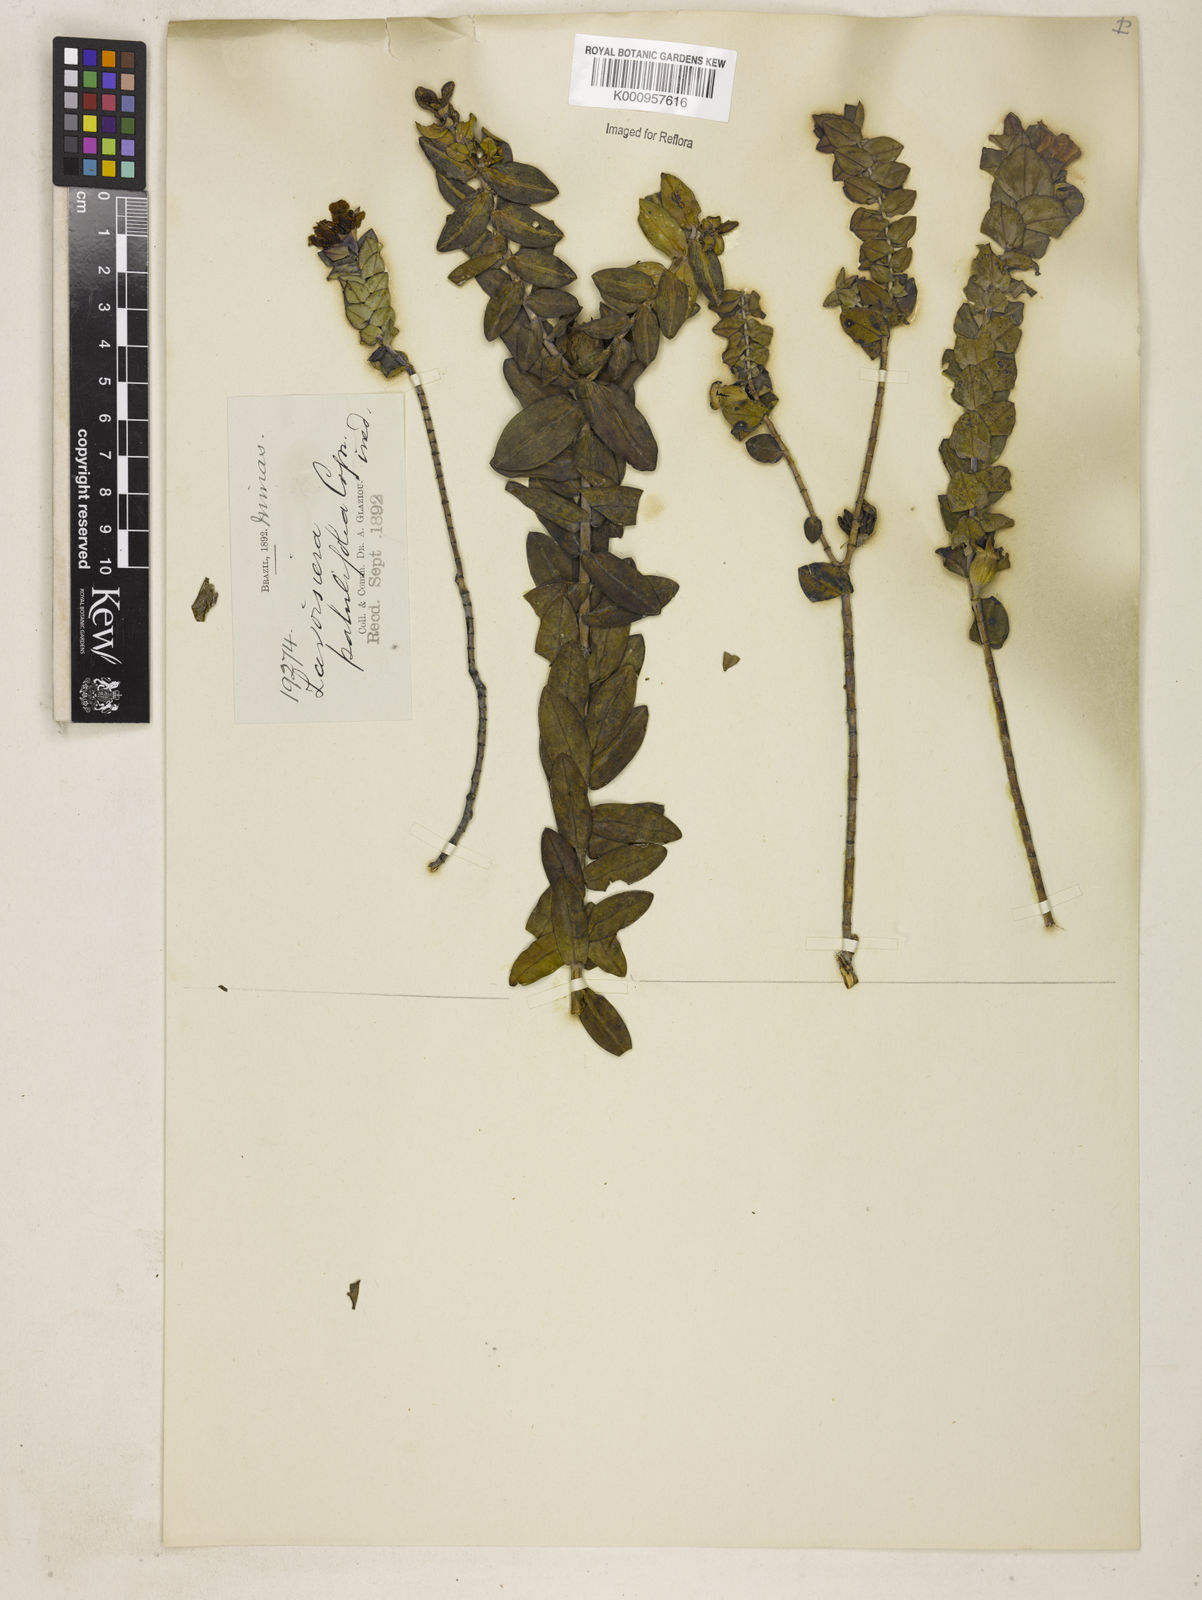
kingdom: Plantae
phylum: Tracheophyta
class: Magnoliopsida
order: Myrtales
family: Melastomataceae
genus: Microlicia
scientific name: Microlicia
